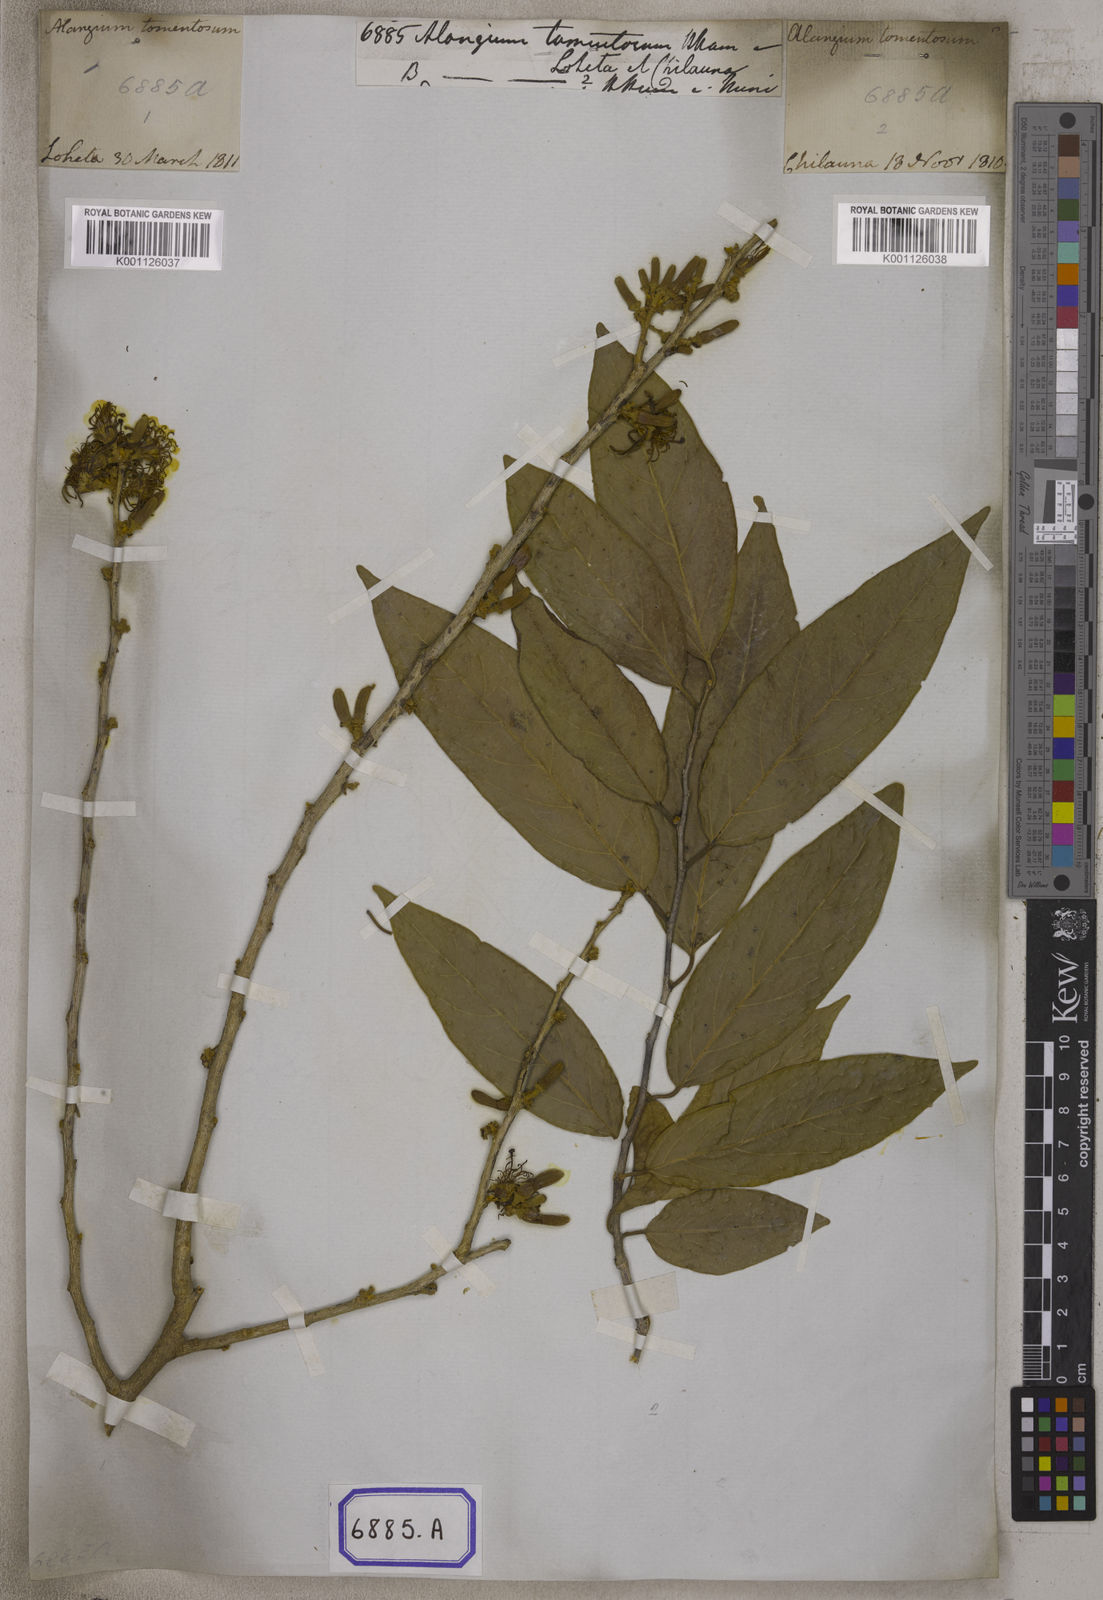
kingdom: Plantae
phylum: Tracheophyta
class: Magnoliopsida
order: Cornales
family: Cornaceae
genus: Alangium
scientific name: Alangium salviifolium
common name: Sage-leaf alangium
